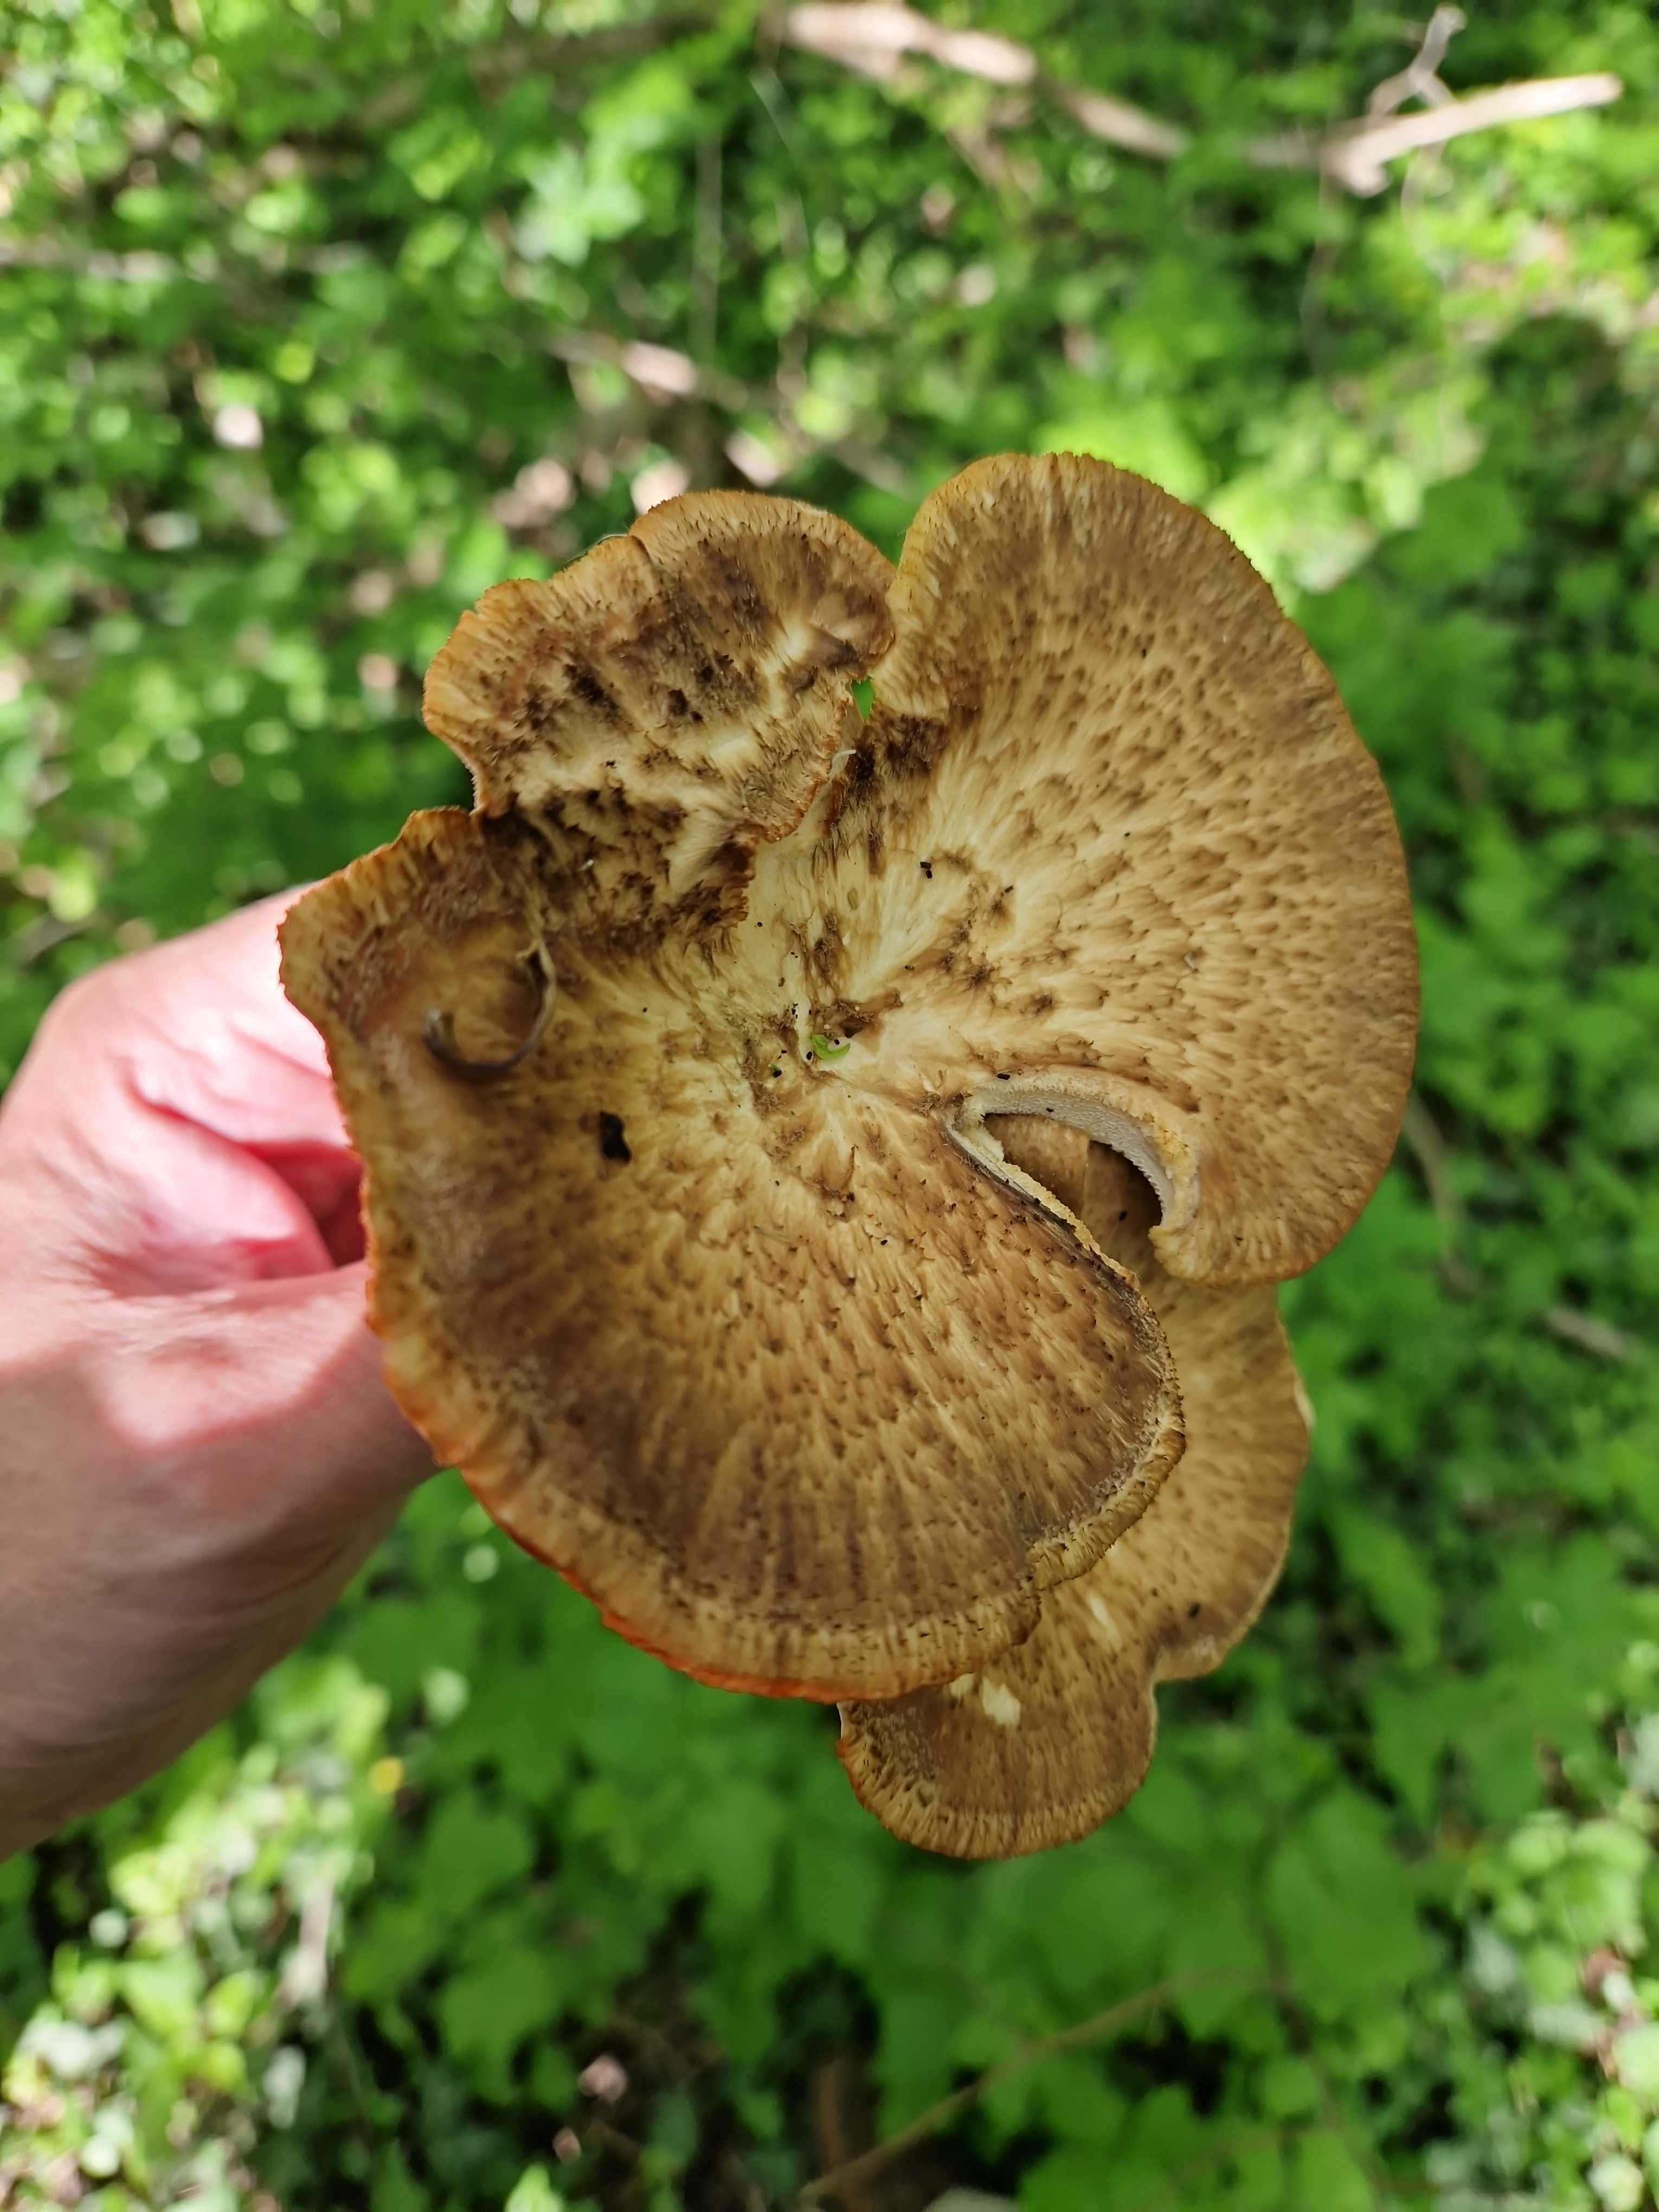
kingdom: Fungi
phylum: Basidiomycota
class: Agaricomycetes
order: Polyporales
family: Polyporaceae
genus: Cerioporus
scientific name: Cerioporus squamosus
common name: skællet stilkporesvamp
